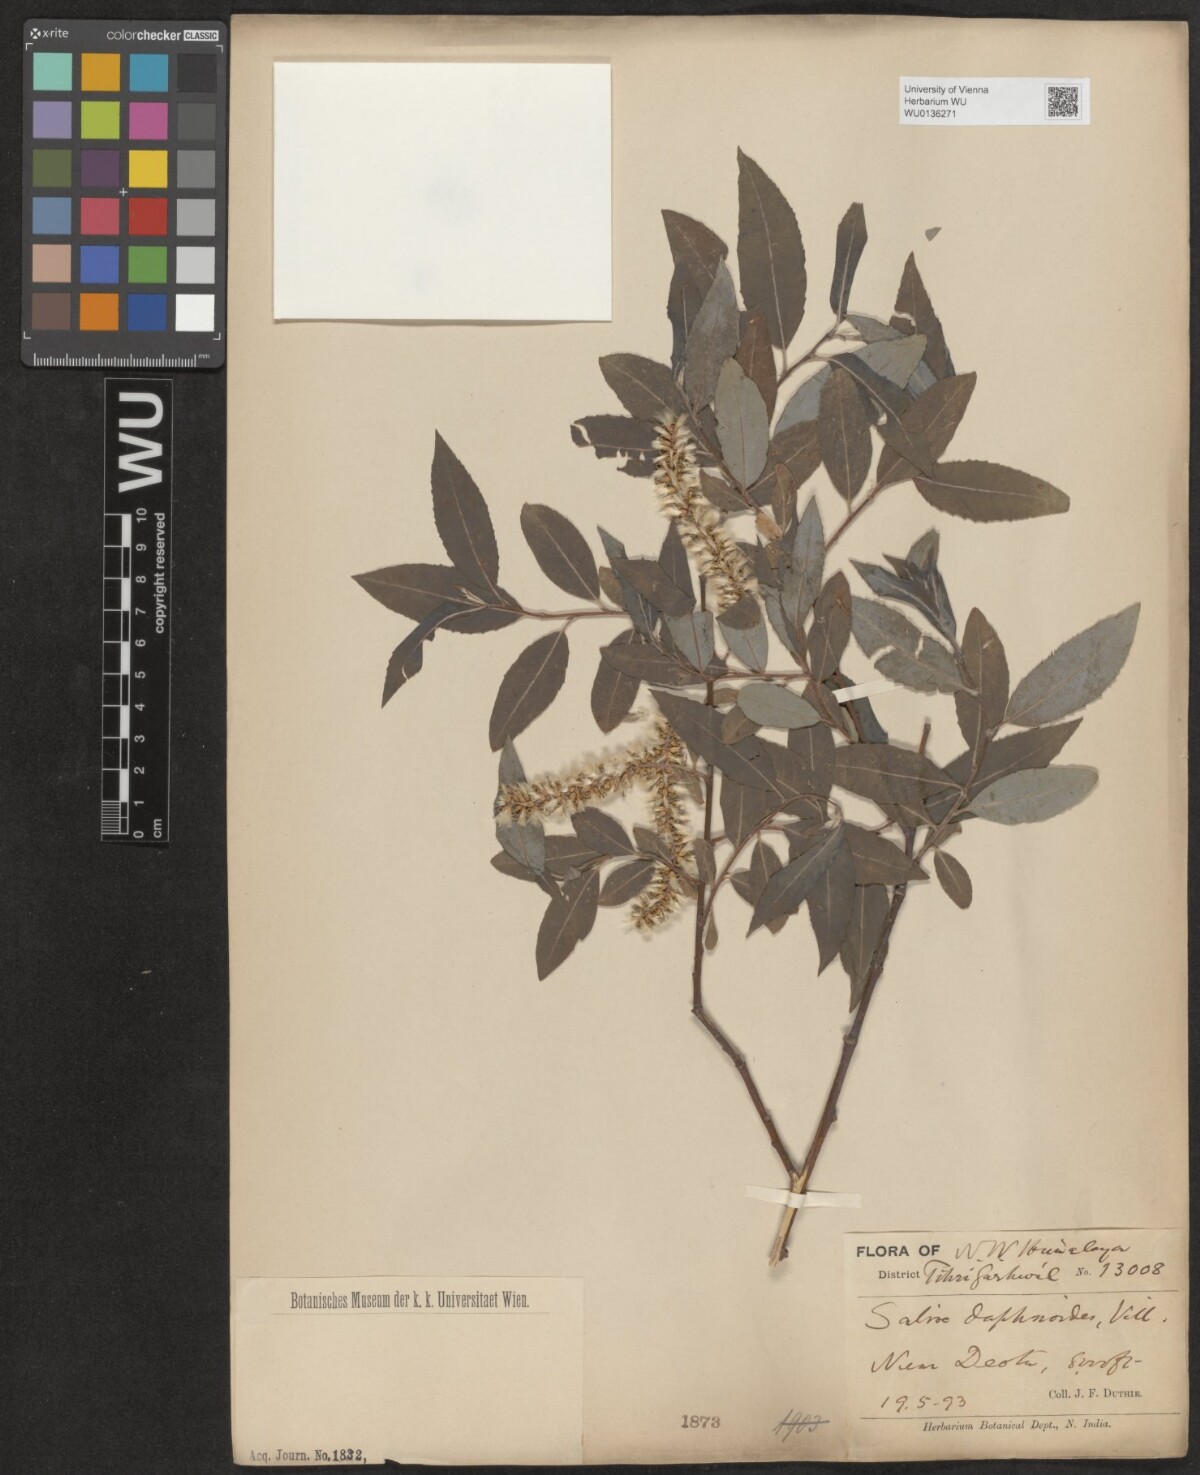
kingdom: Plantae
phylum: Tracheophyta
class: Magnoliopsida
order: Malpighiales
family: Salicaceae
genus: Salix
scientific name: Salix daphnoides
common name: European violet-willow
